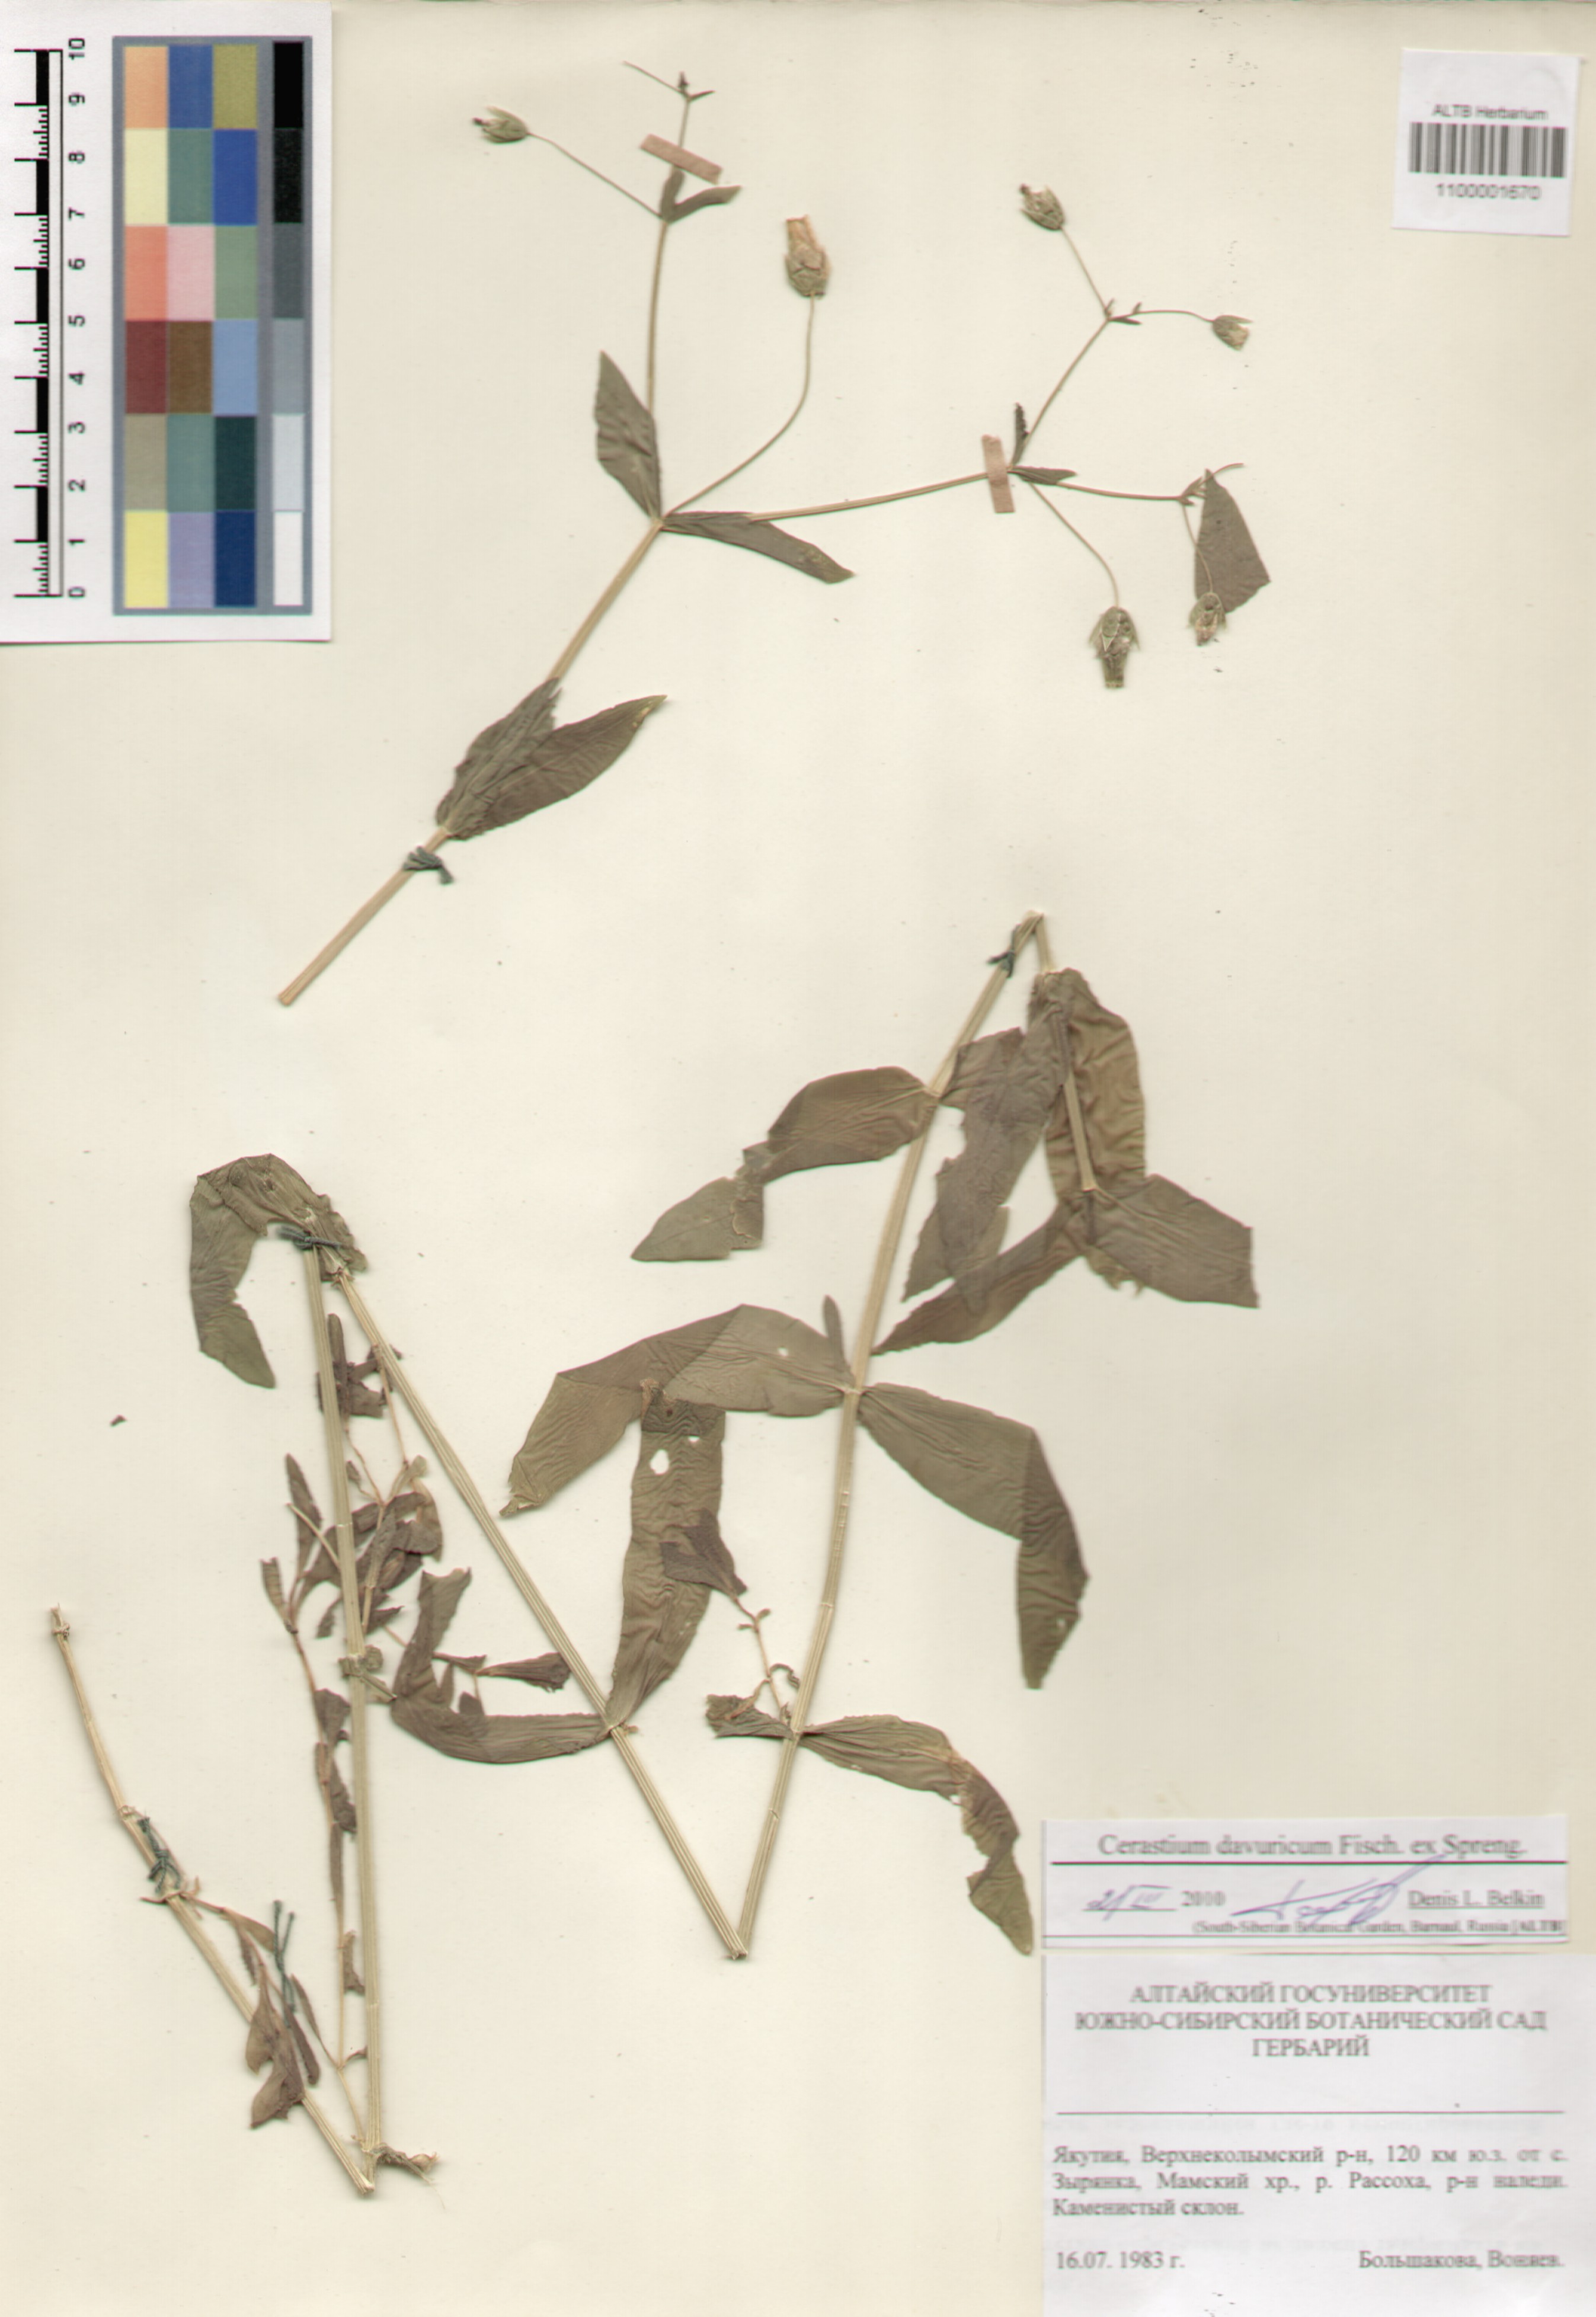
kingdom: Plantae
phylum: Tracheophyta
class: Magnoliopsida
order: Caryophyllales
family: Caryophyllaceae
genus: Dichodon
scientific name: Dichodon davuricum
